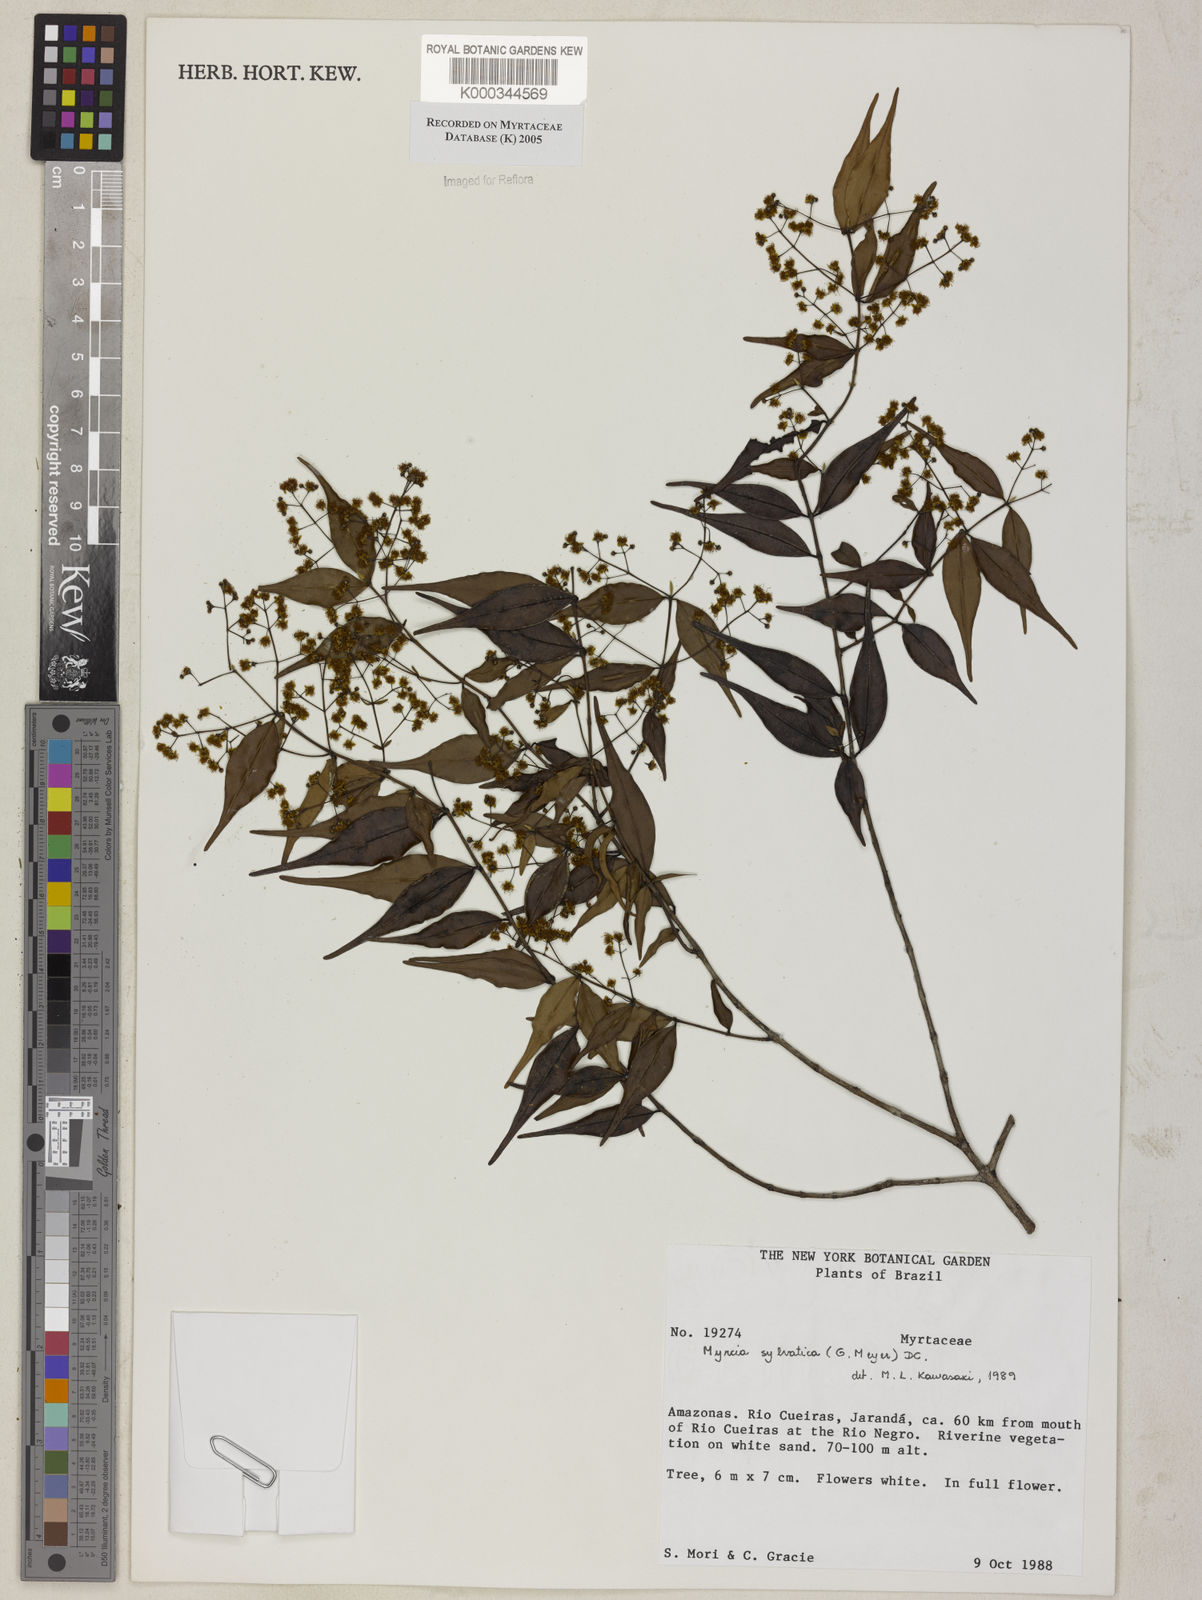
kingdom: Plantae
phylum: Tracheophyta
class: Magnoliopsida
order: Myrtales
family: Myrtaceae
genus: Myrcia
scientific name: Myrcia sylvatica
